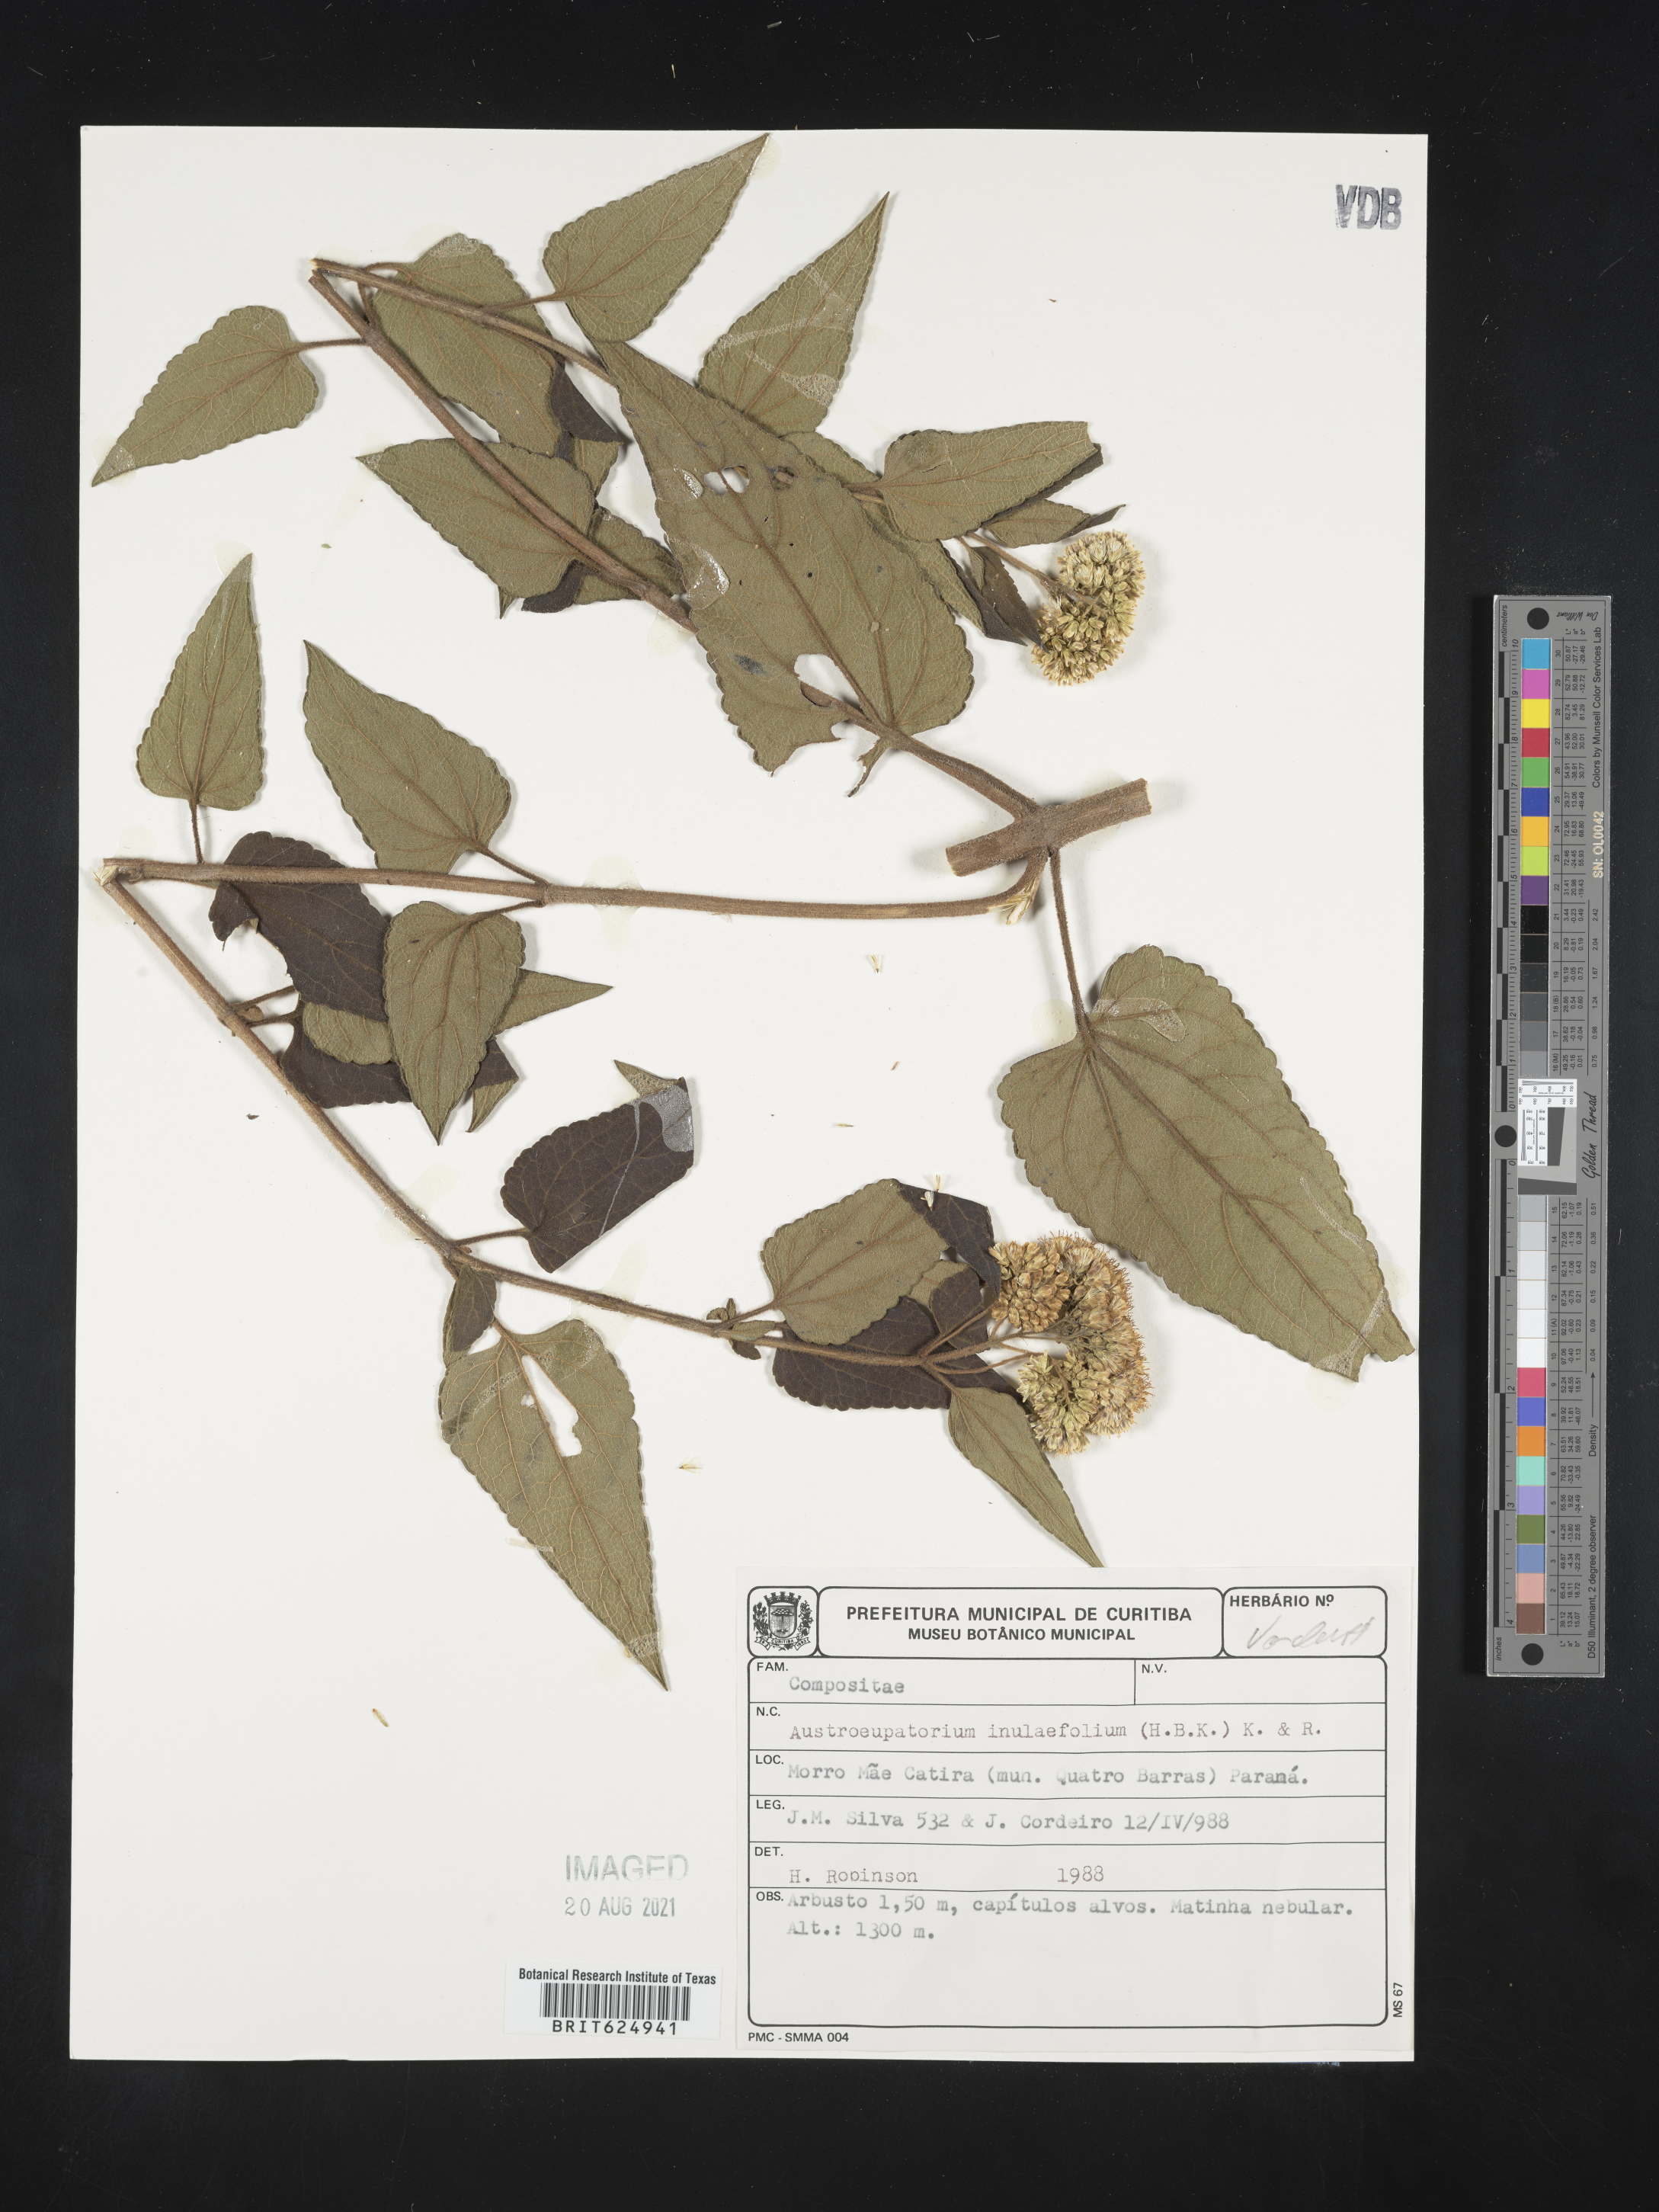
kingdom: Plantae
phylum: Tracheophyta
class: Magnoliopsida
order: Asterales
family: Asteraceae
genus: Austroeupatorium
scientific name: Austroeupatorium inulaefolium
